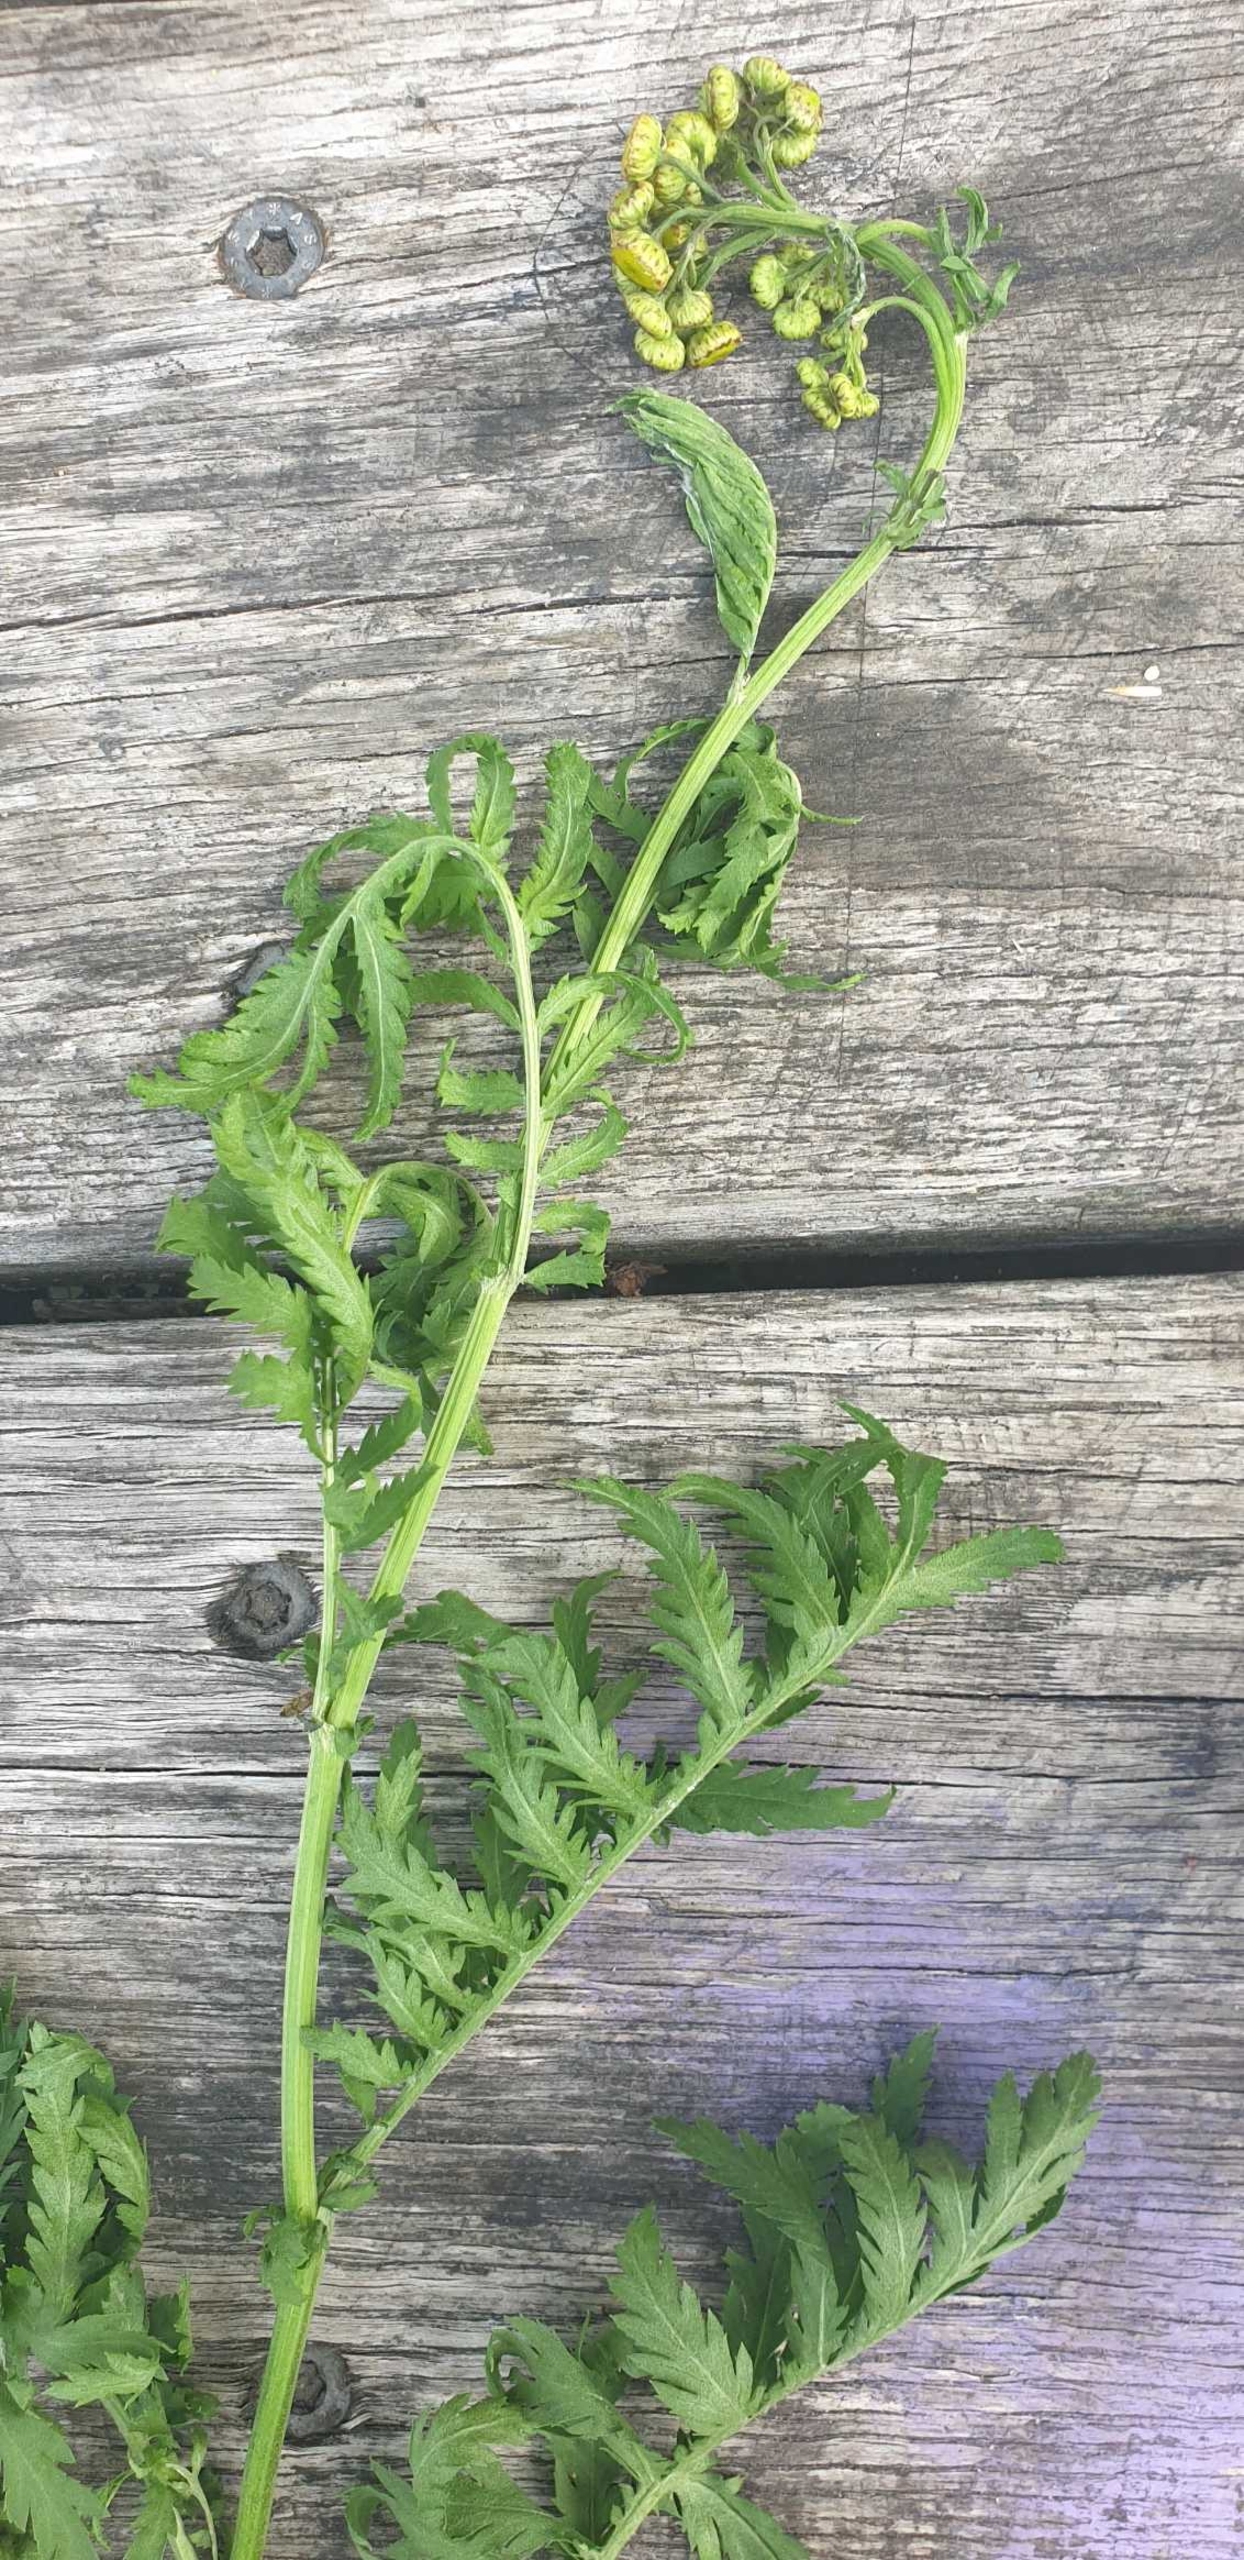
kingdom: Plantae
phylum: Tracheophyta
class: Magnoliopsida
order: Asterales
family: Asteraceae
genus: Tanacetum
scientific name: Tanacetum vulgare
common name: Rejnfan
